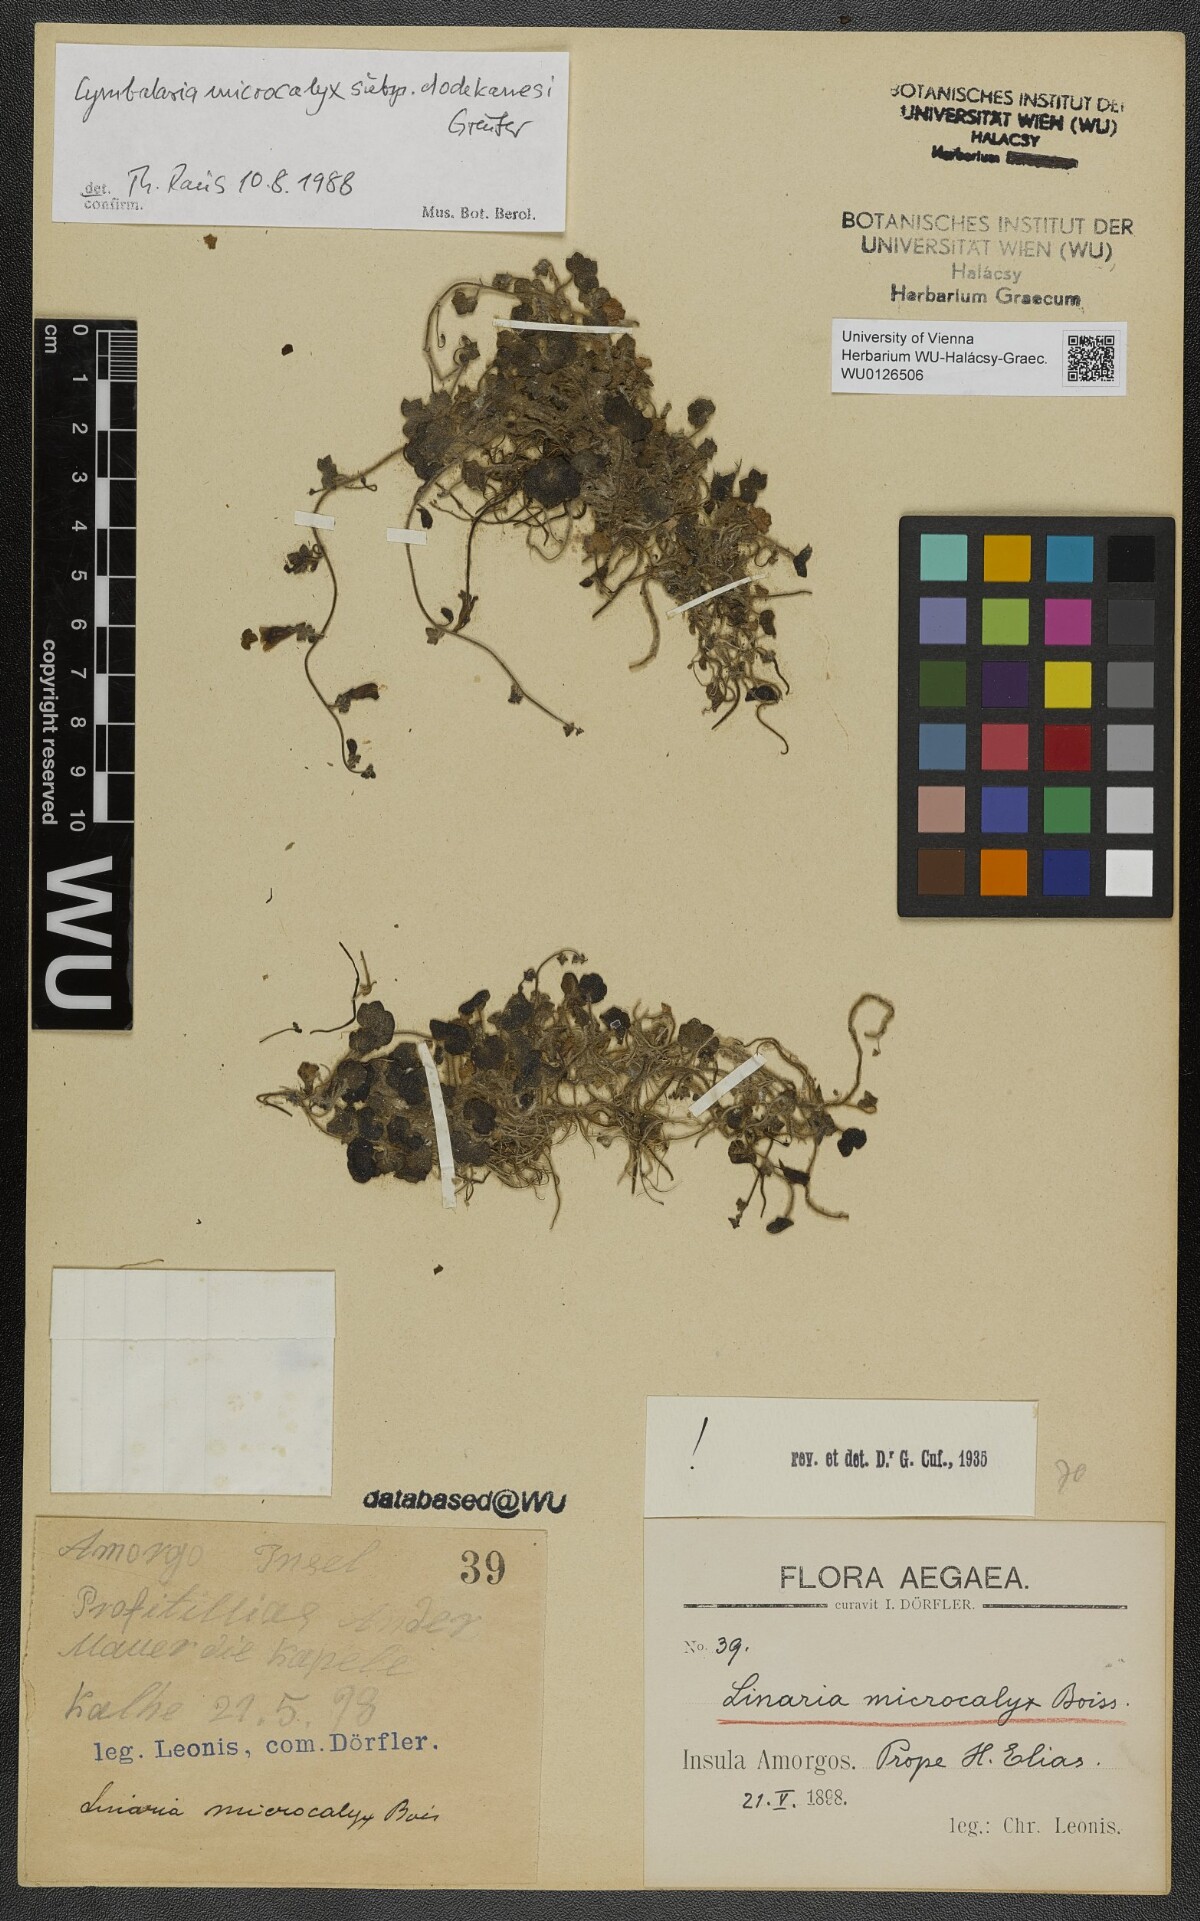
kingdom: Plantae
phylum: Tracheophyta
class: Magnoliopsida
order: Lamiales
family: Plantaginaceae
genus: Cymbalaria
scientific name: Cymbalaria acutiloba
